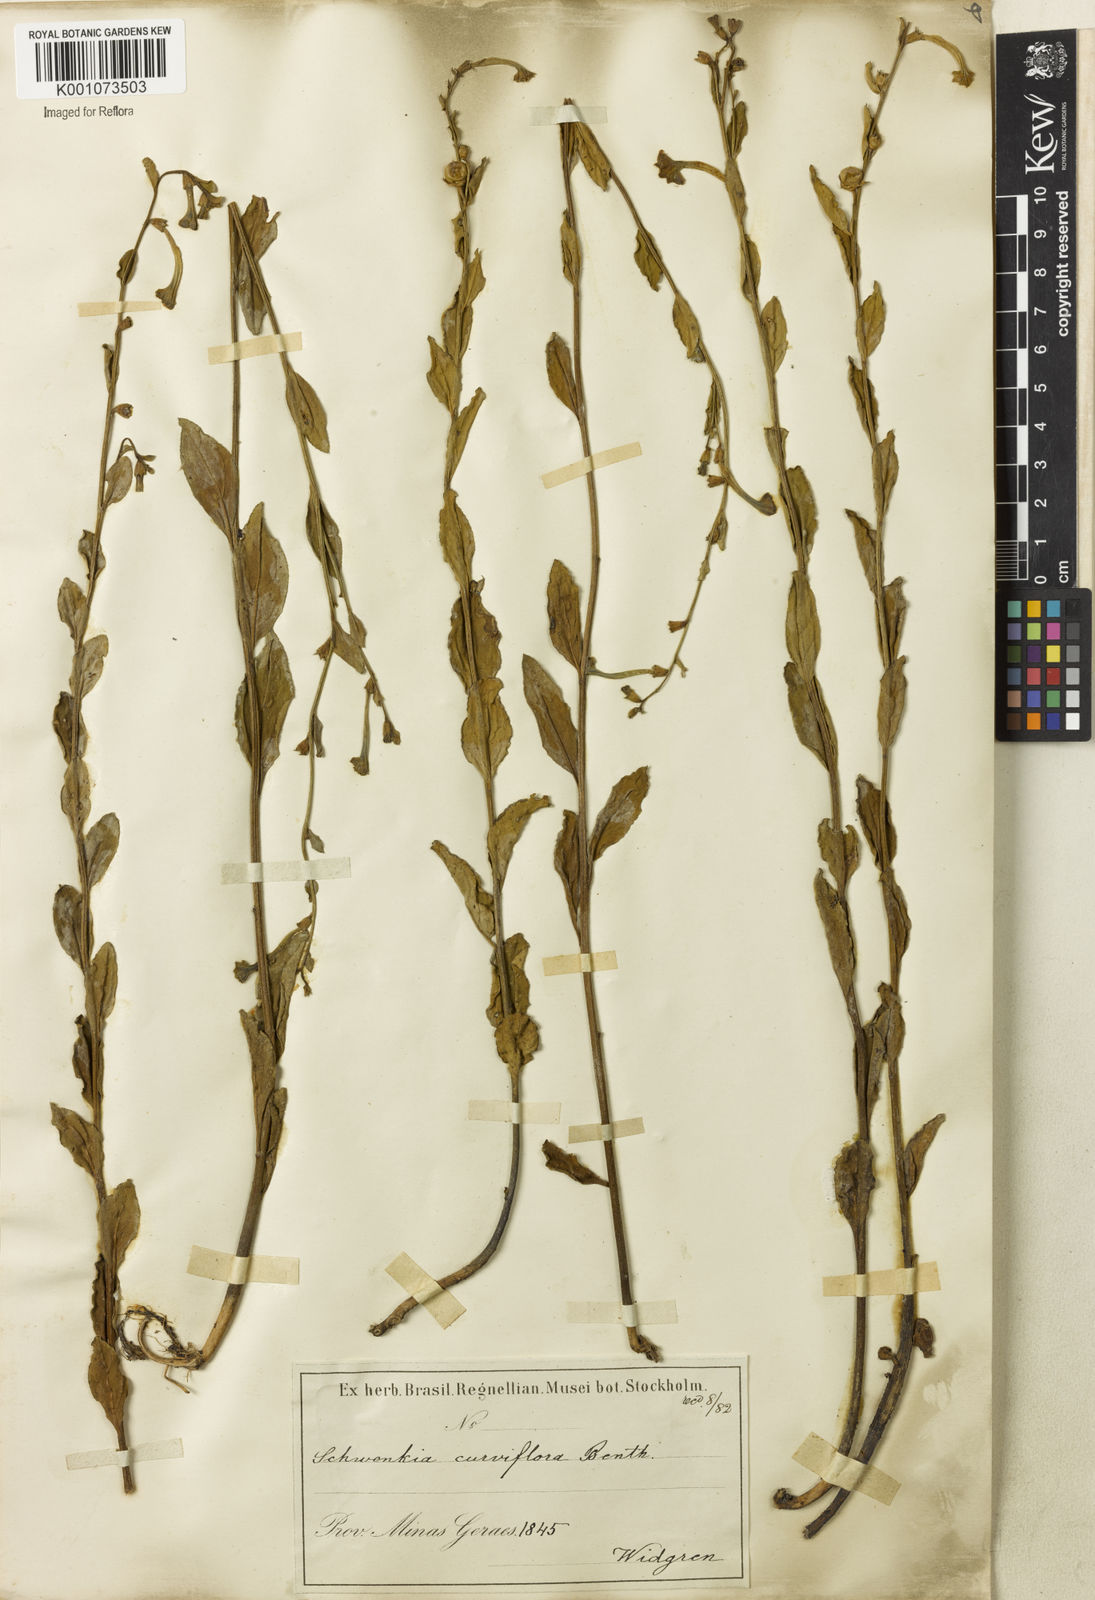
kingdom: Plantae
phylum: Tracheophyta
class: Magnoliopsida
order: Solanales
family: Solanaceae
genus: Schwenckia
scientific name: Schwenckia
